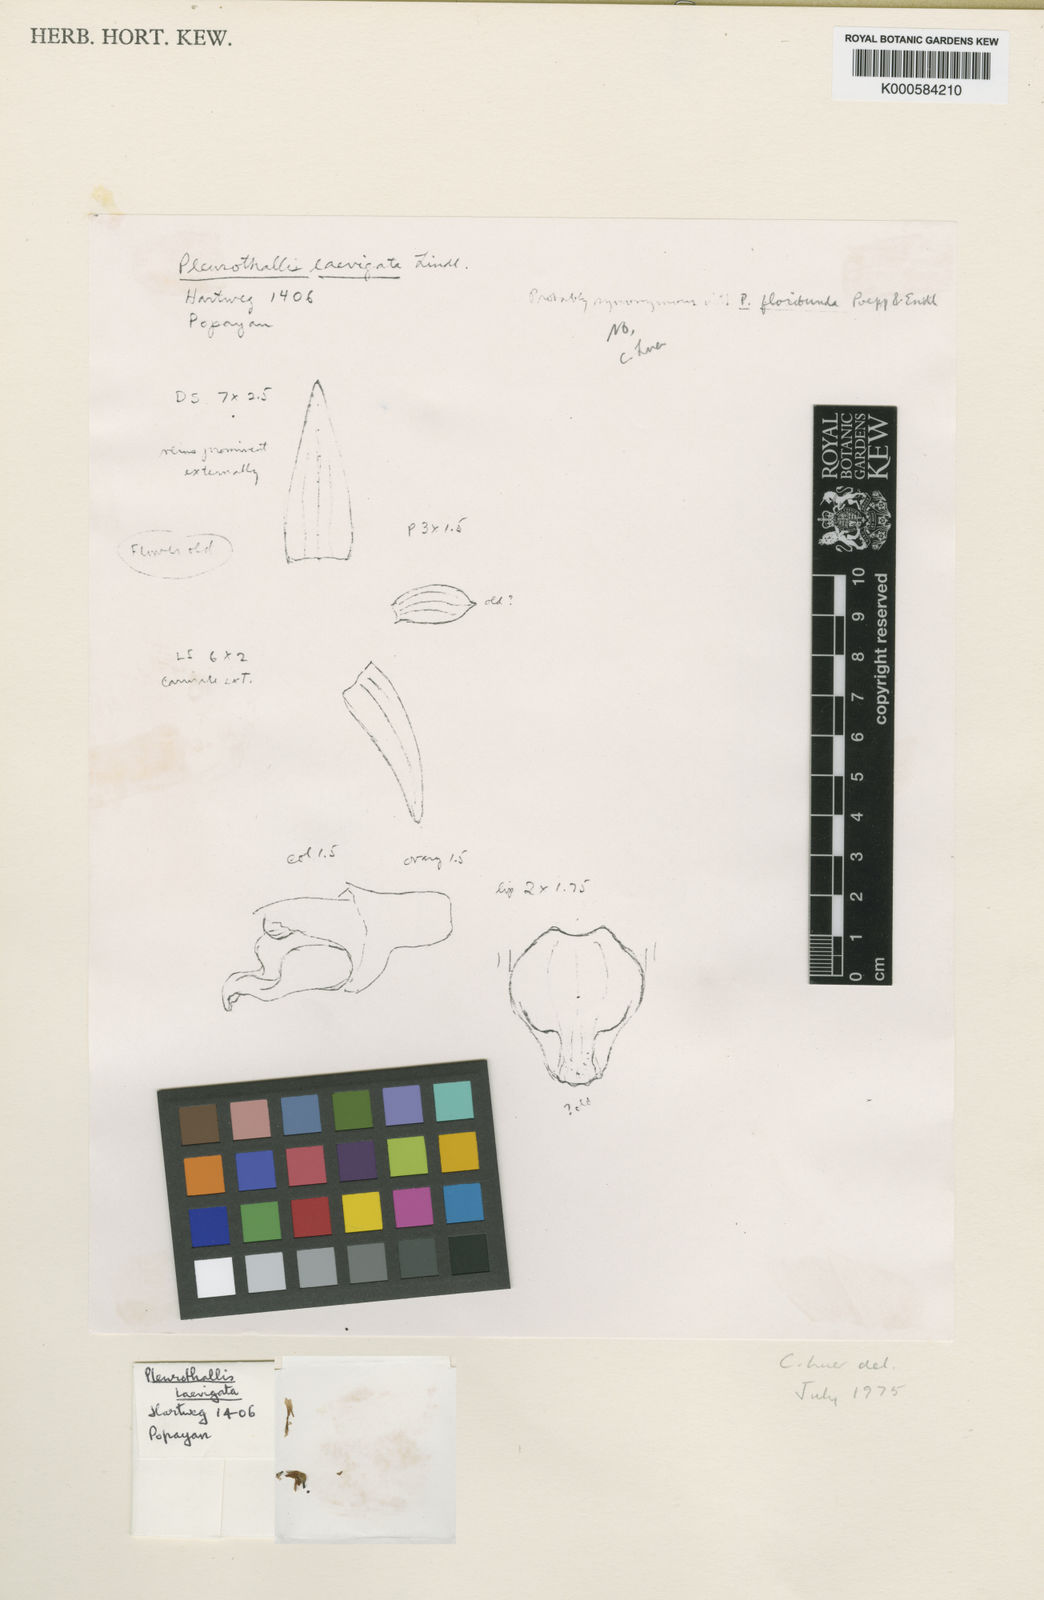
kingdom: Plantae
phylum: Tracheophyta
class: Liliopsida
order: Asparagales
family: Orchidaceae
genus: Stelis
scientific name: Stelis laevigata
